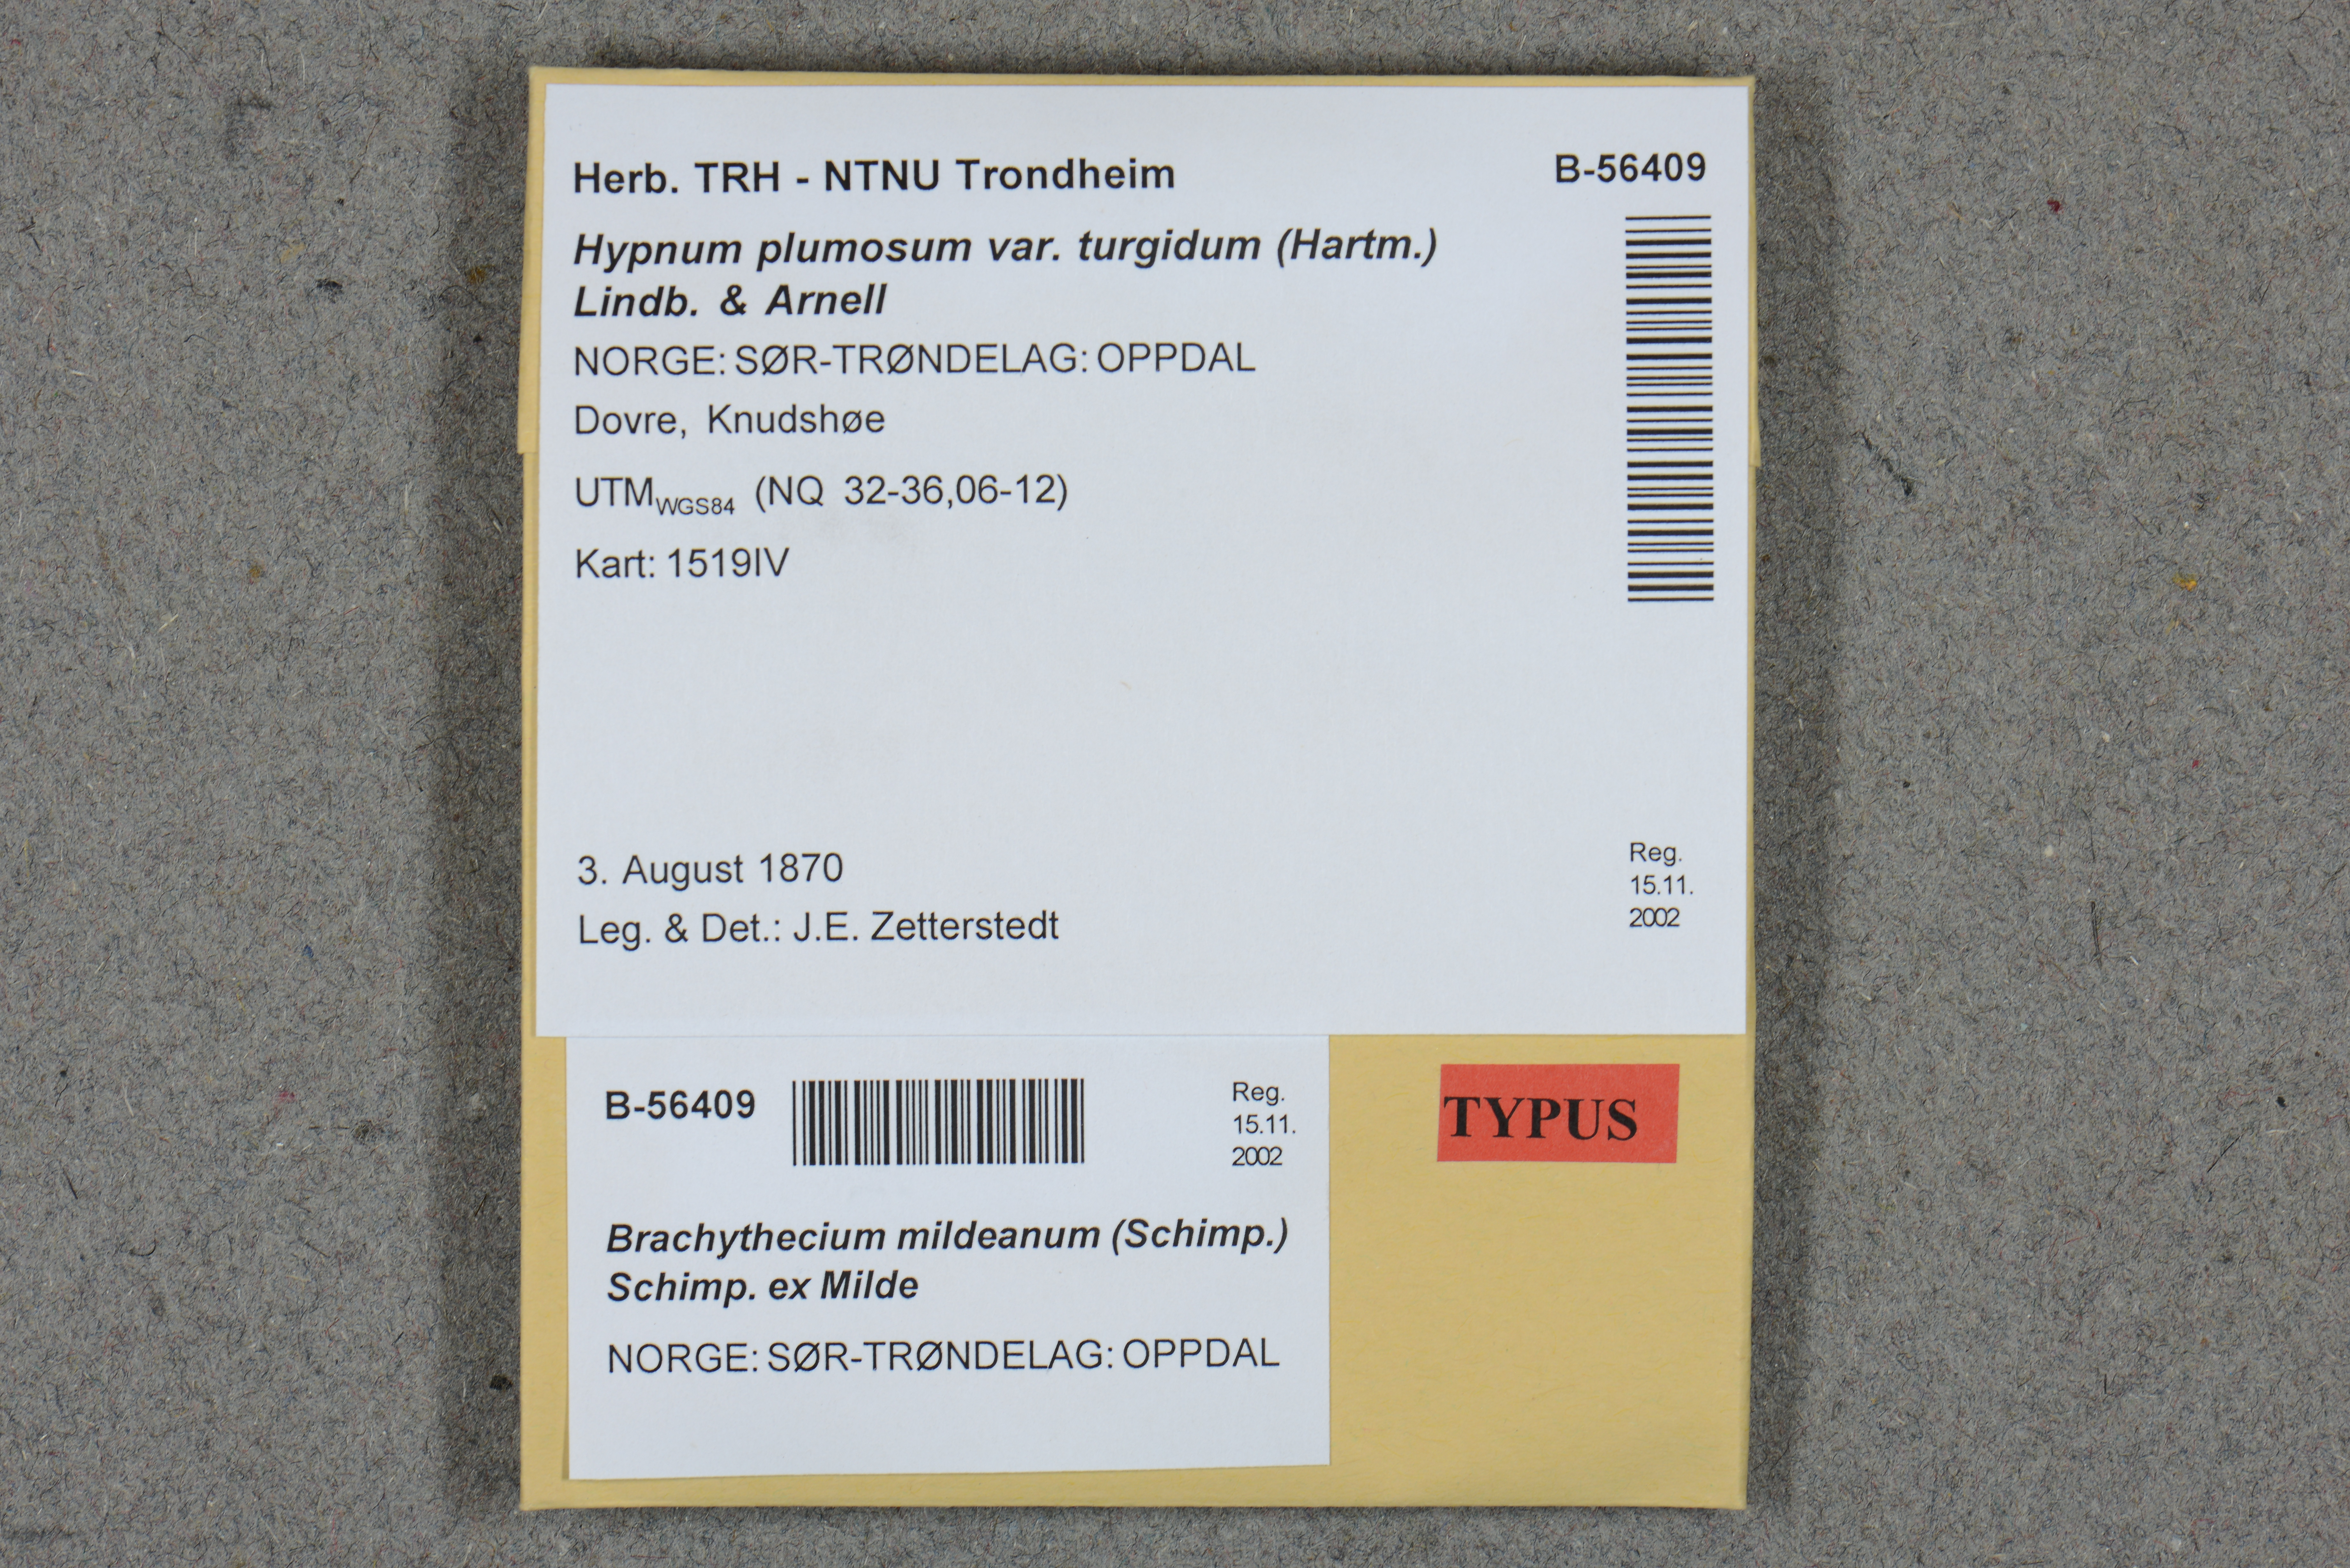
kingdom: Plantae
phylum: Bryophyta
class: Bryopsida
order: Hypnales
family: Brachytheciaceae
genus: Brachythecium
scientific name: Brachythecium udum
